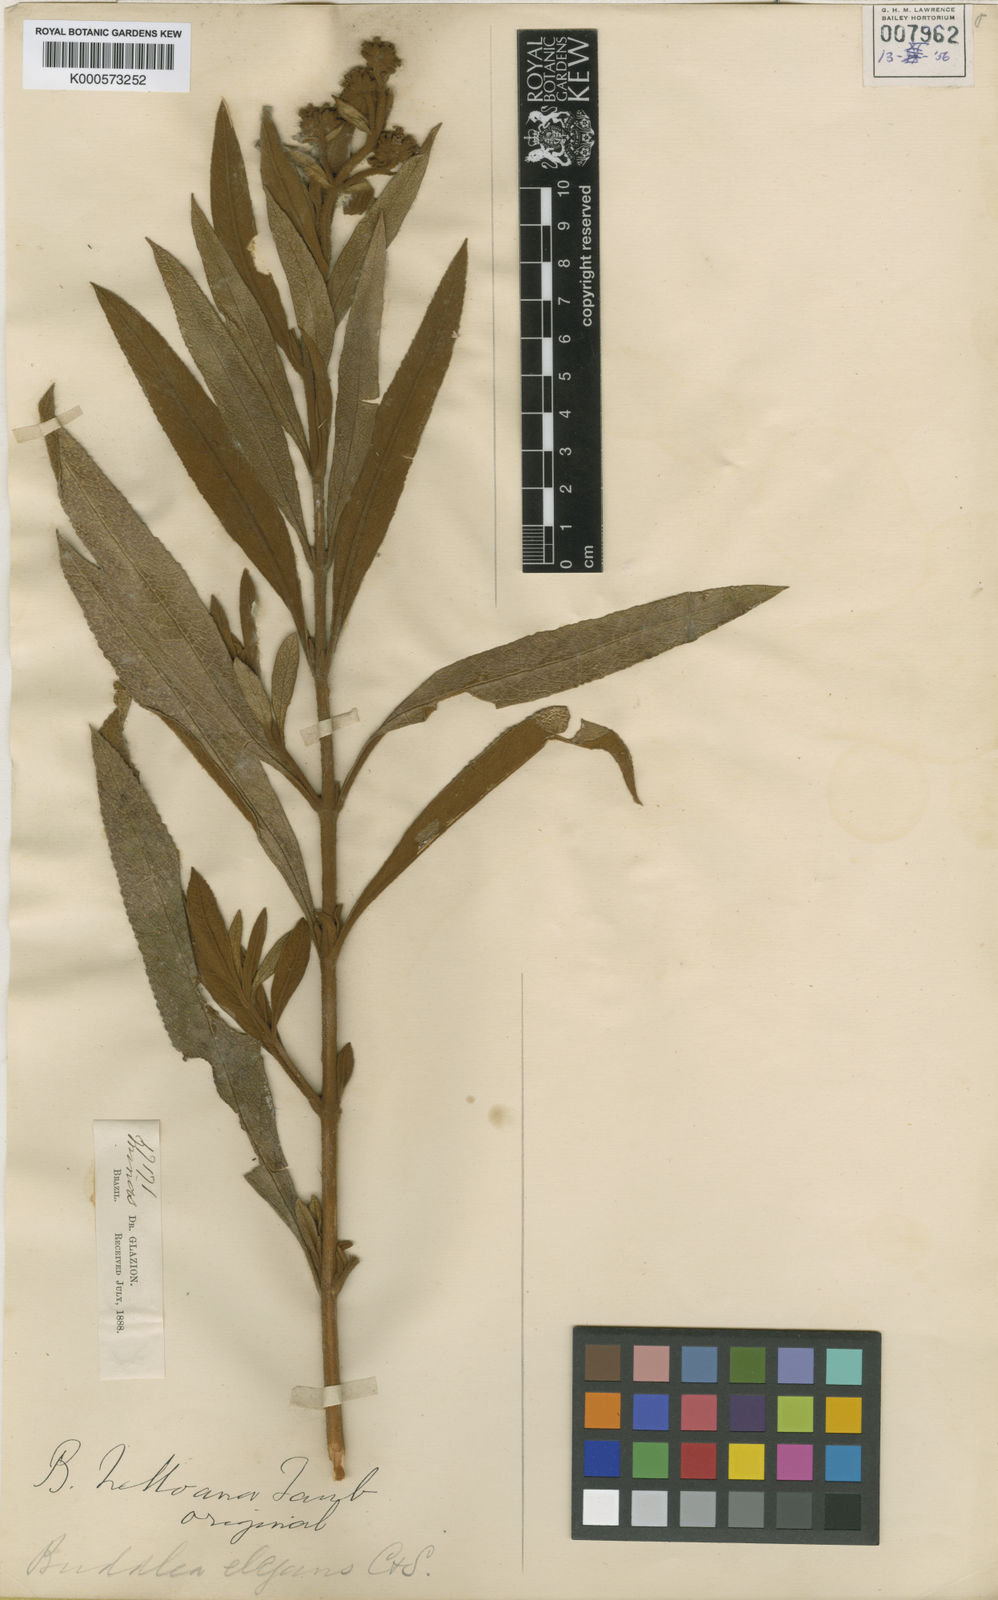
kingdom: Plantae
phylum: Tracheophyta
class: Magnoliopsida
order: Lamiales
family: Scrophulariaceae
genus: Buddleja
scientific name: Buddleja elegans
